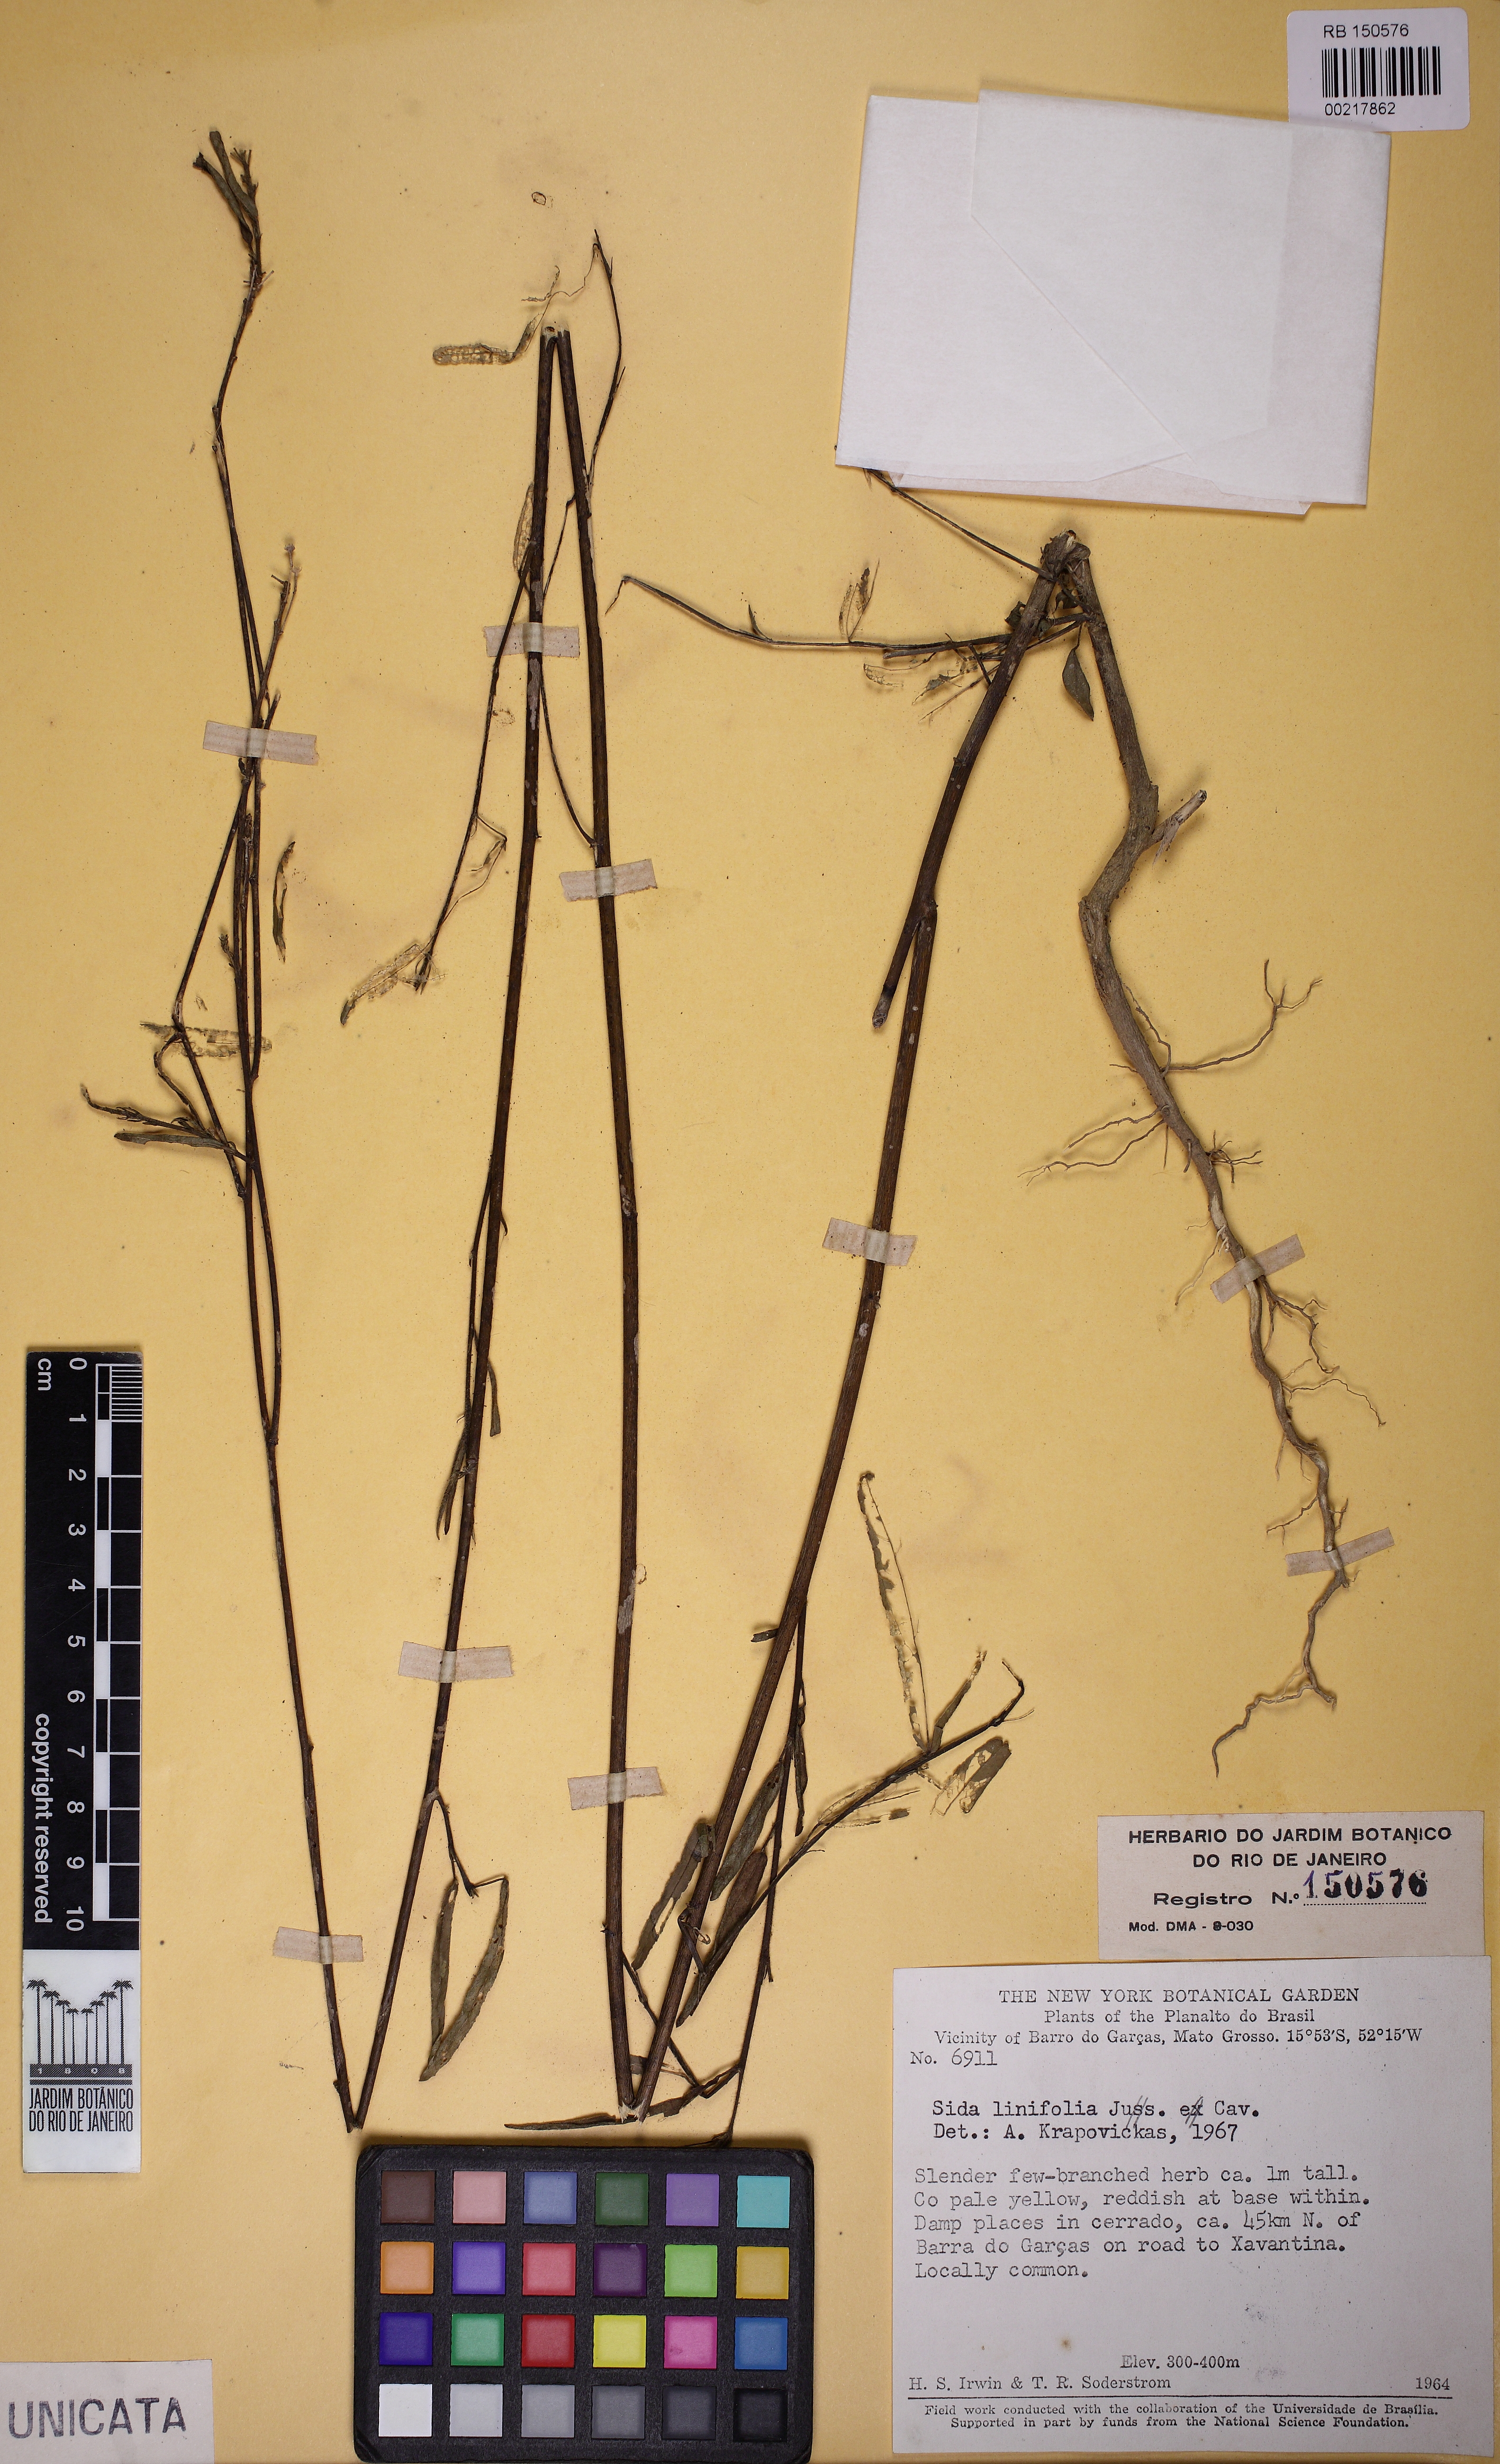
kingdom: Plantae
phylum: Tracheophyta
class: Magnoliopsida
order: Malvales
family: Malvaceae
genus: Sida
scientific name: Sida linifolia
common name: Flaxleaf fanpetals
